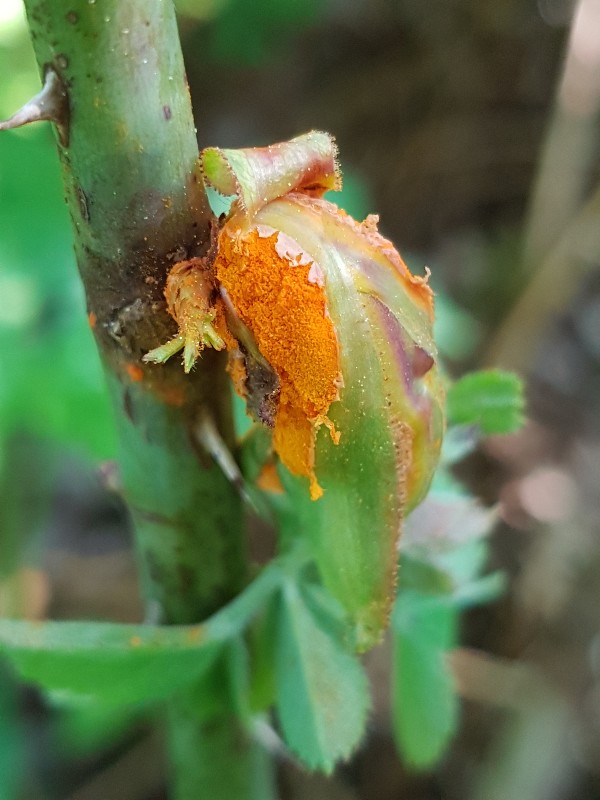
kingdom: Fungi
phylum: Basidiomycota
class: Pucciniomycetes
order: Pucciniales
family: Phragmidiaceae
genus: Phragmidium
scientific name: Phragmidium bulbosum
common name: brombær-flercellerust
